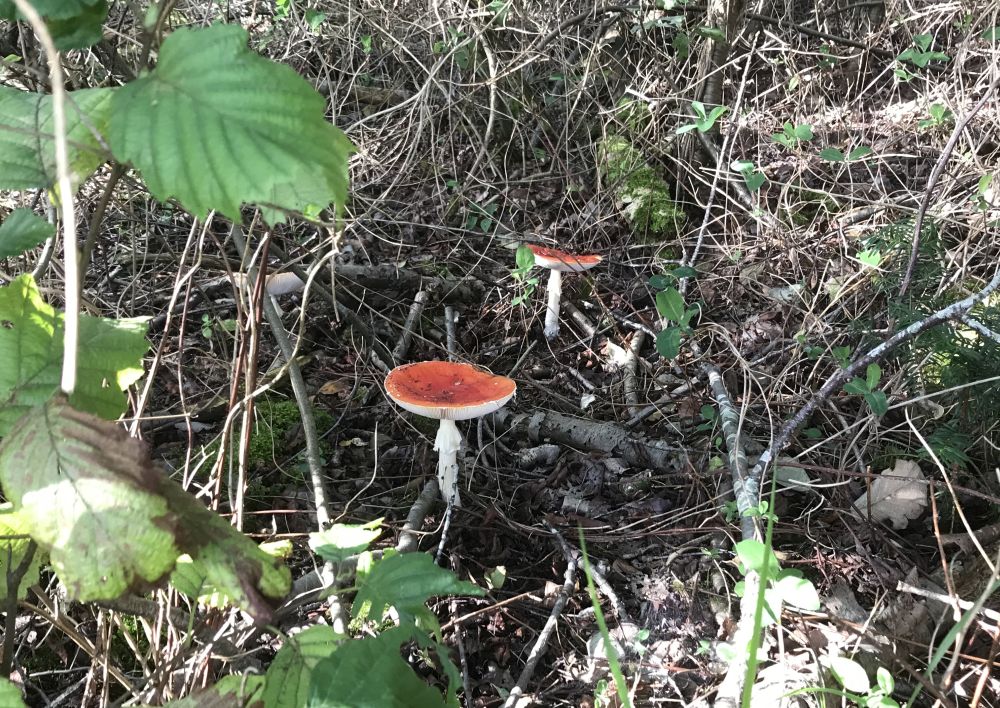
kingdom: Fungi
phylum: Basidiomycota
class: Agaricomycetes
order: Agaricales
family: Amanitaceae
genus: Amanita
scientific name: Amanita muscaria
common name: rød fluesvamp
